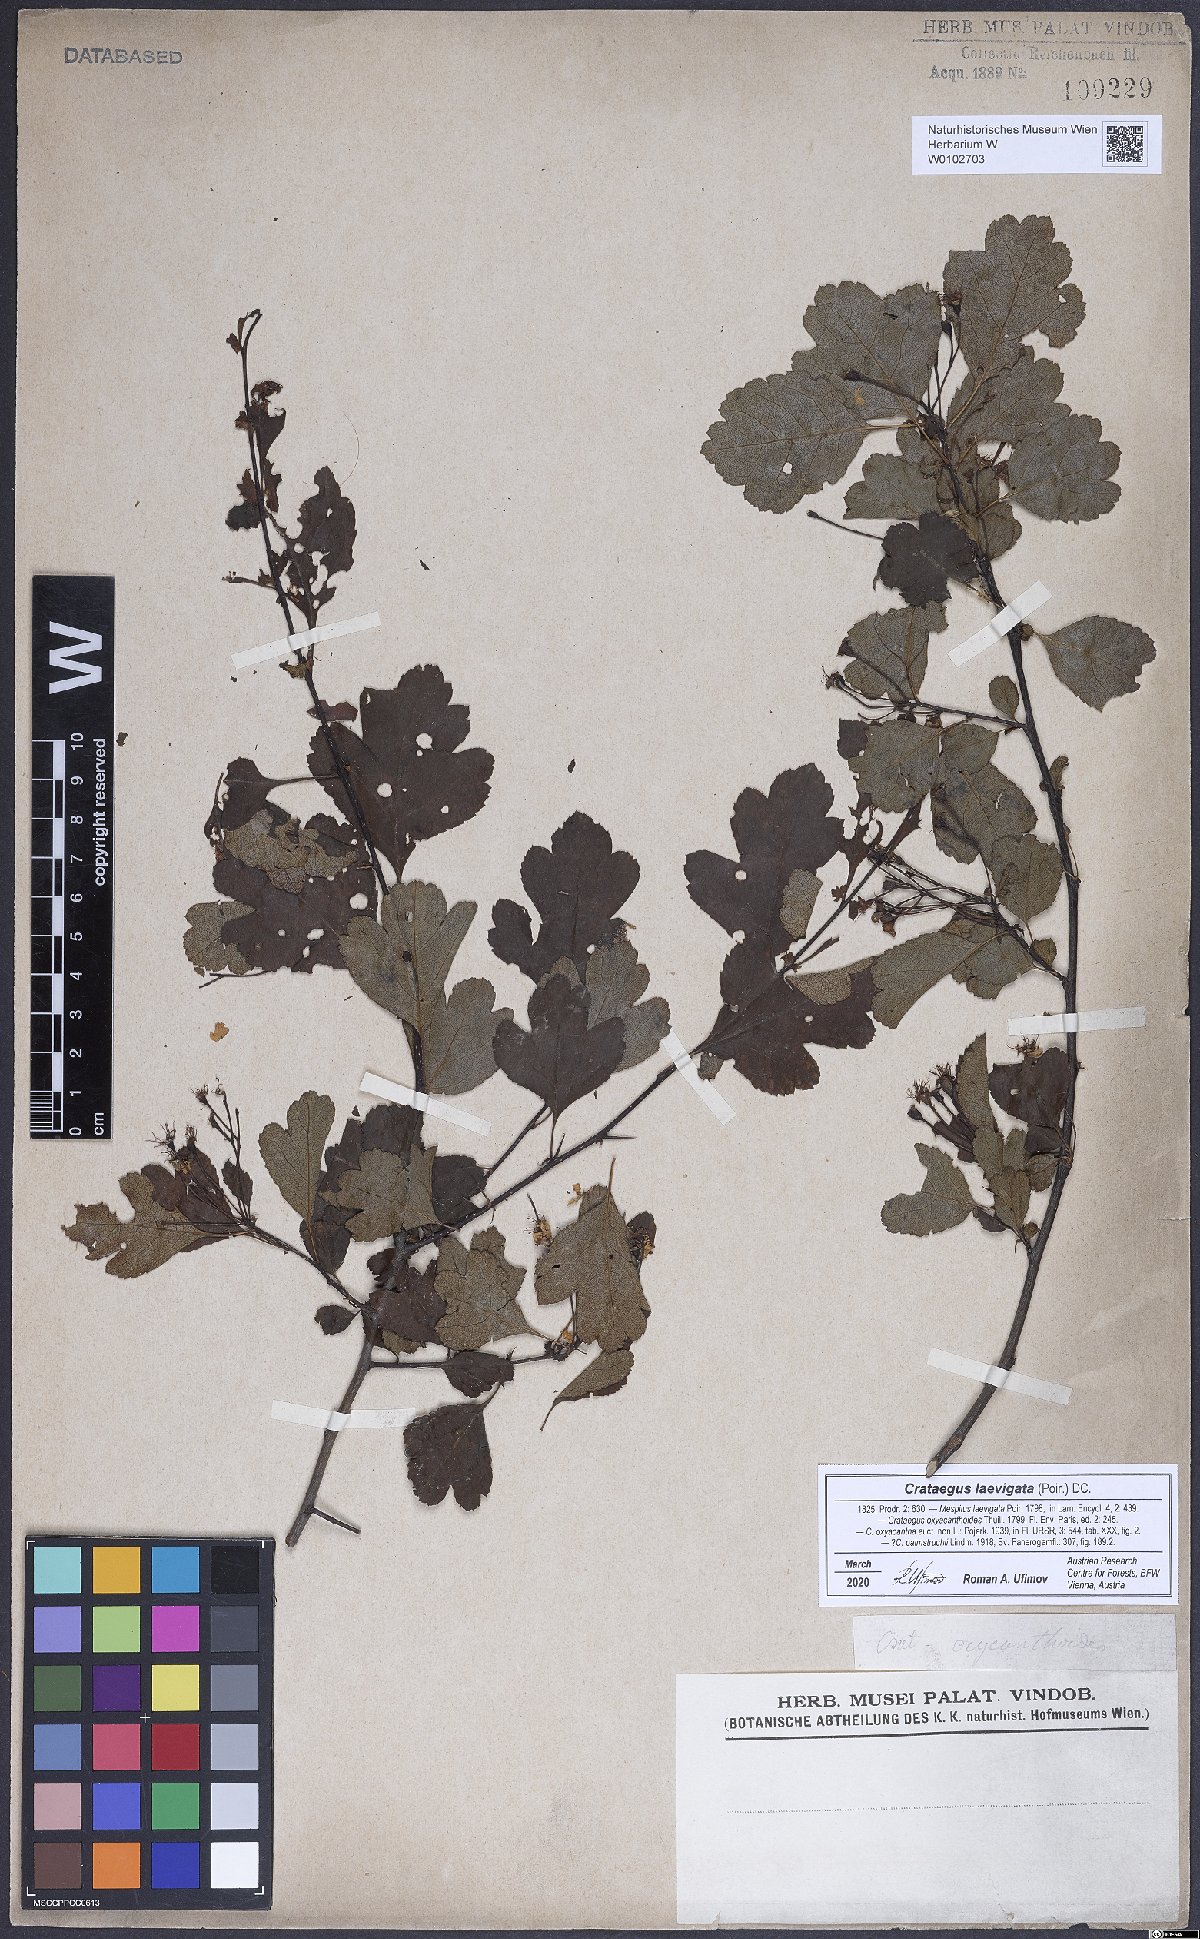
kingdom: Plantae
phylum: Tracheophyta
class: Magnoliopsida
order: Rosales
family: Rosaceae
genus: Crataegus
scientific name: Crataegus laevigata
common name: Midland hawthorn
